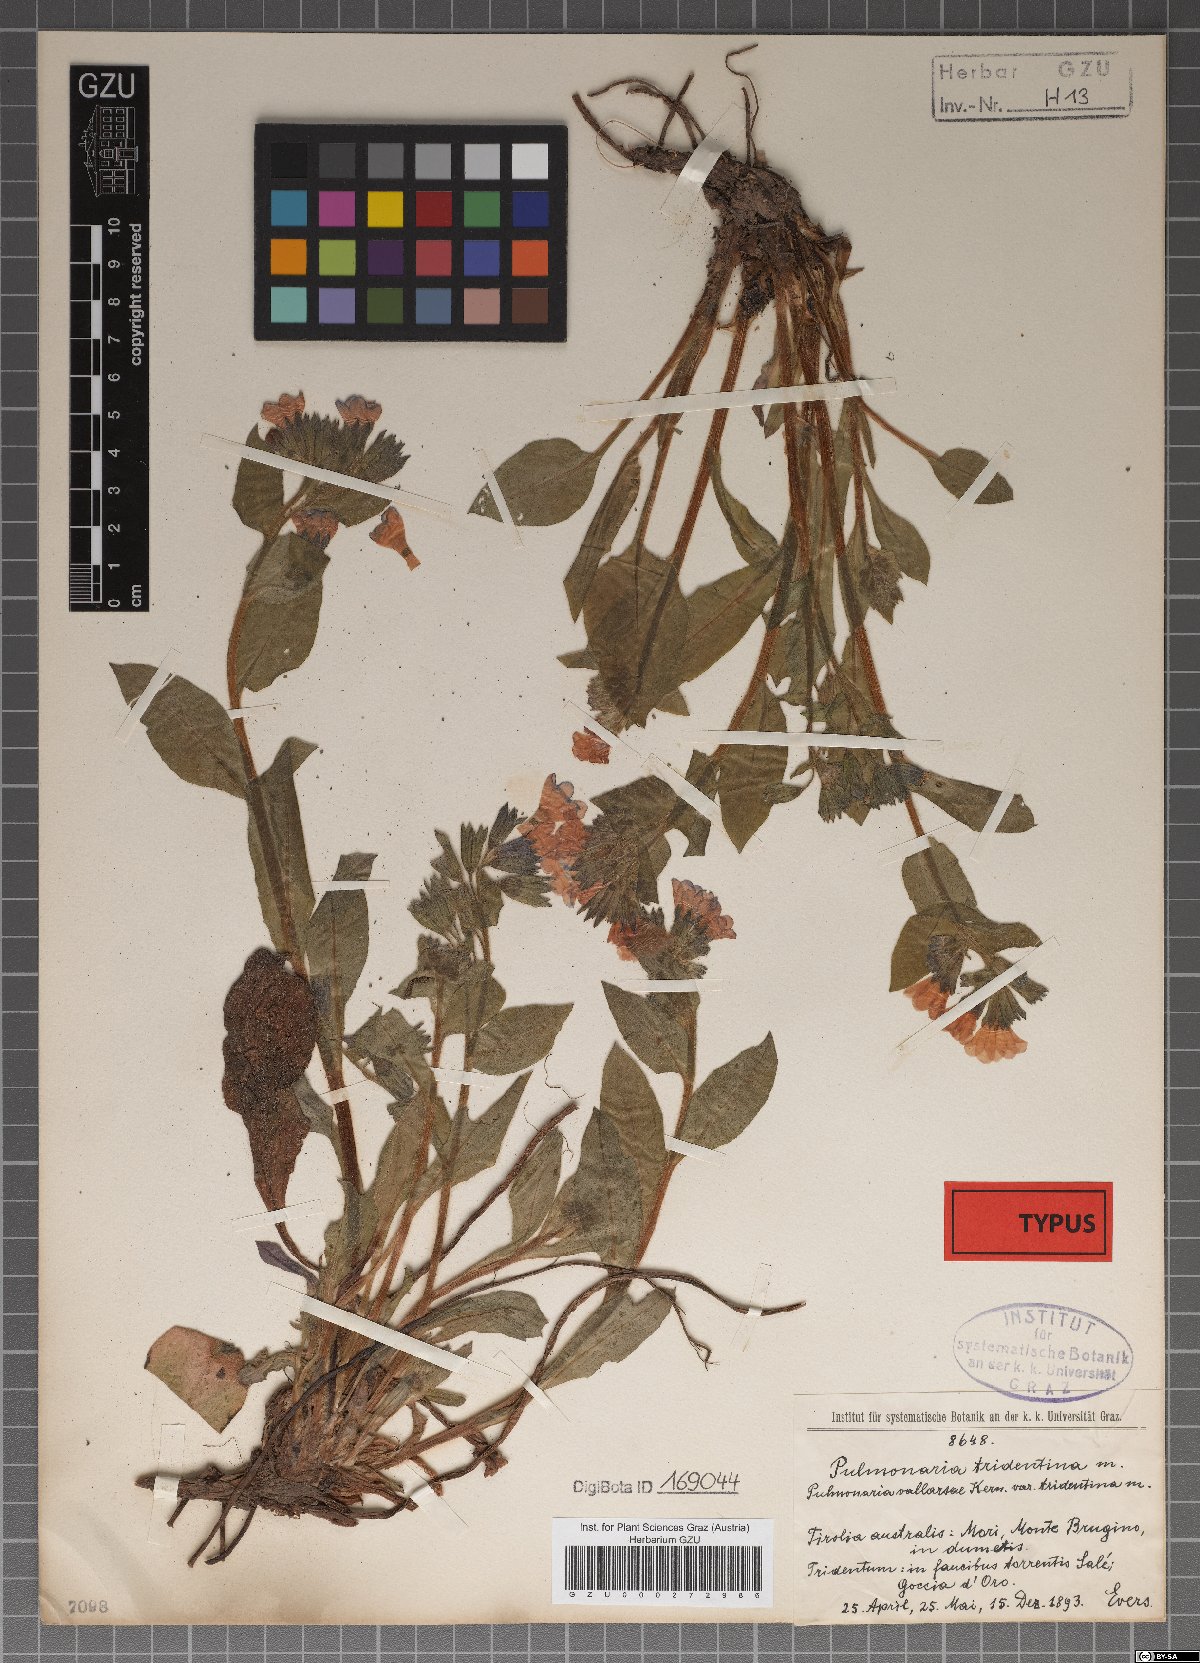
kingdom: Plantae
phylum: Tracheophyta
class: Magnoliopsida
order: Boraginales
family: Boraginaceae
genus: Pulmonaria
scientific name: Pulmonaria officinalis
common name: Lungwort
